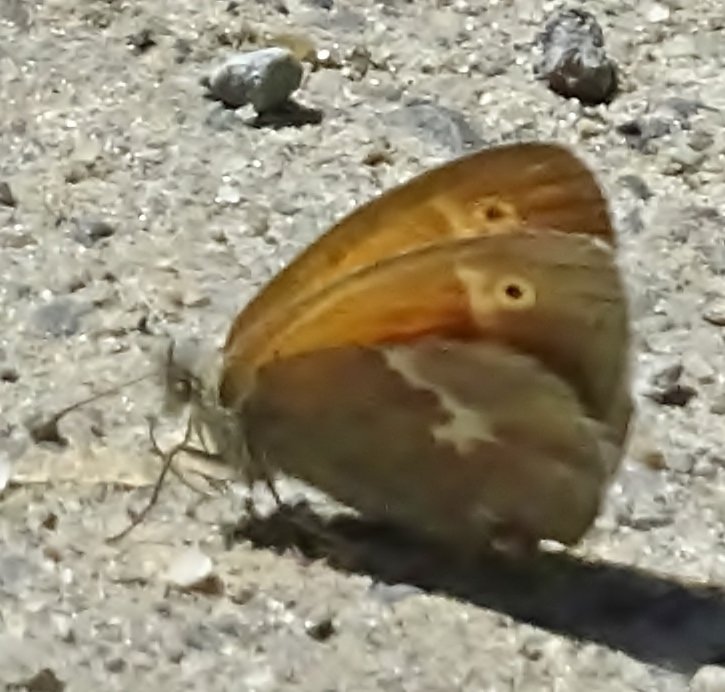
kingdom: Animalia
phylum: Arthropoda
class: Insecta
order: Lepidoptera
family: Nymphalidae
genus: Coenonympha
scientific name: Coenonympha tullia
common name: Large Heath
